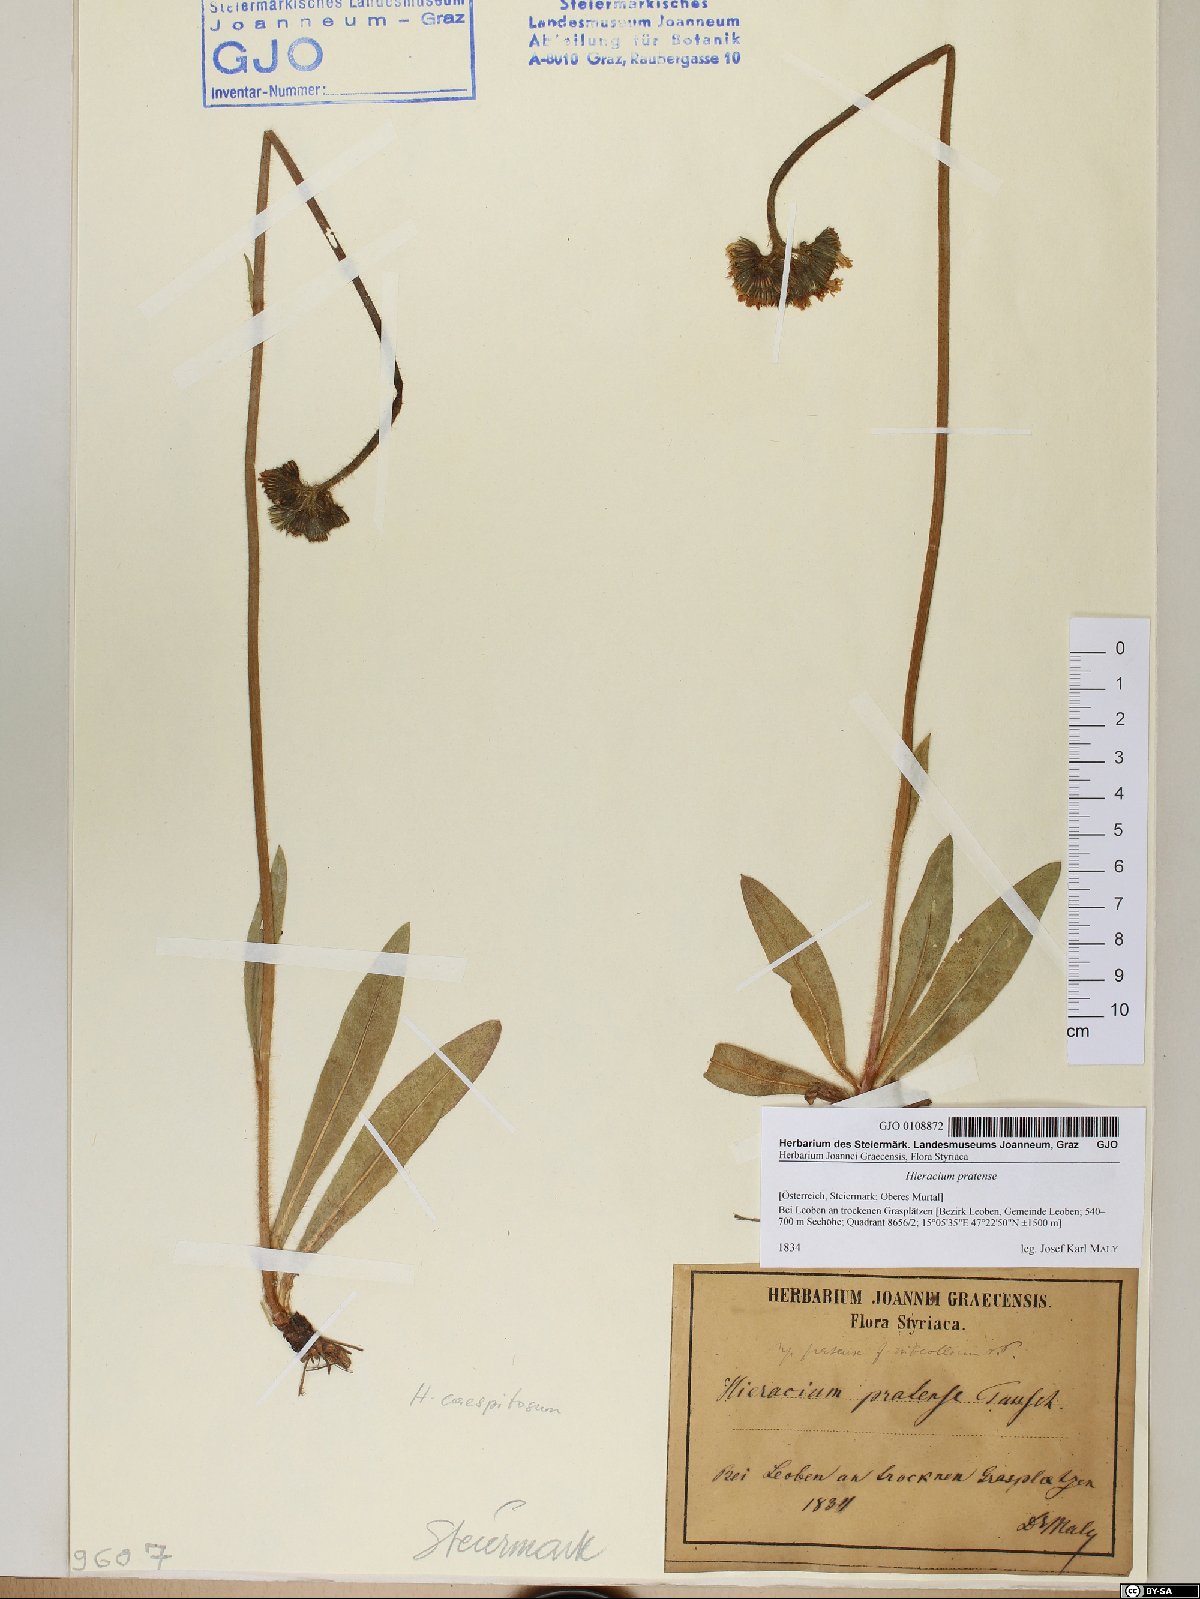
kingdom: Plantae
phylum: Tracheophyta
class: Magnoliopsida
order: Asterales
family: Asteraceae
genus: Pilosella
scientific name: Pilosella caespitosa
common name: Yellow fox-and-cubs
